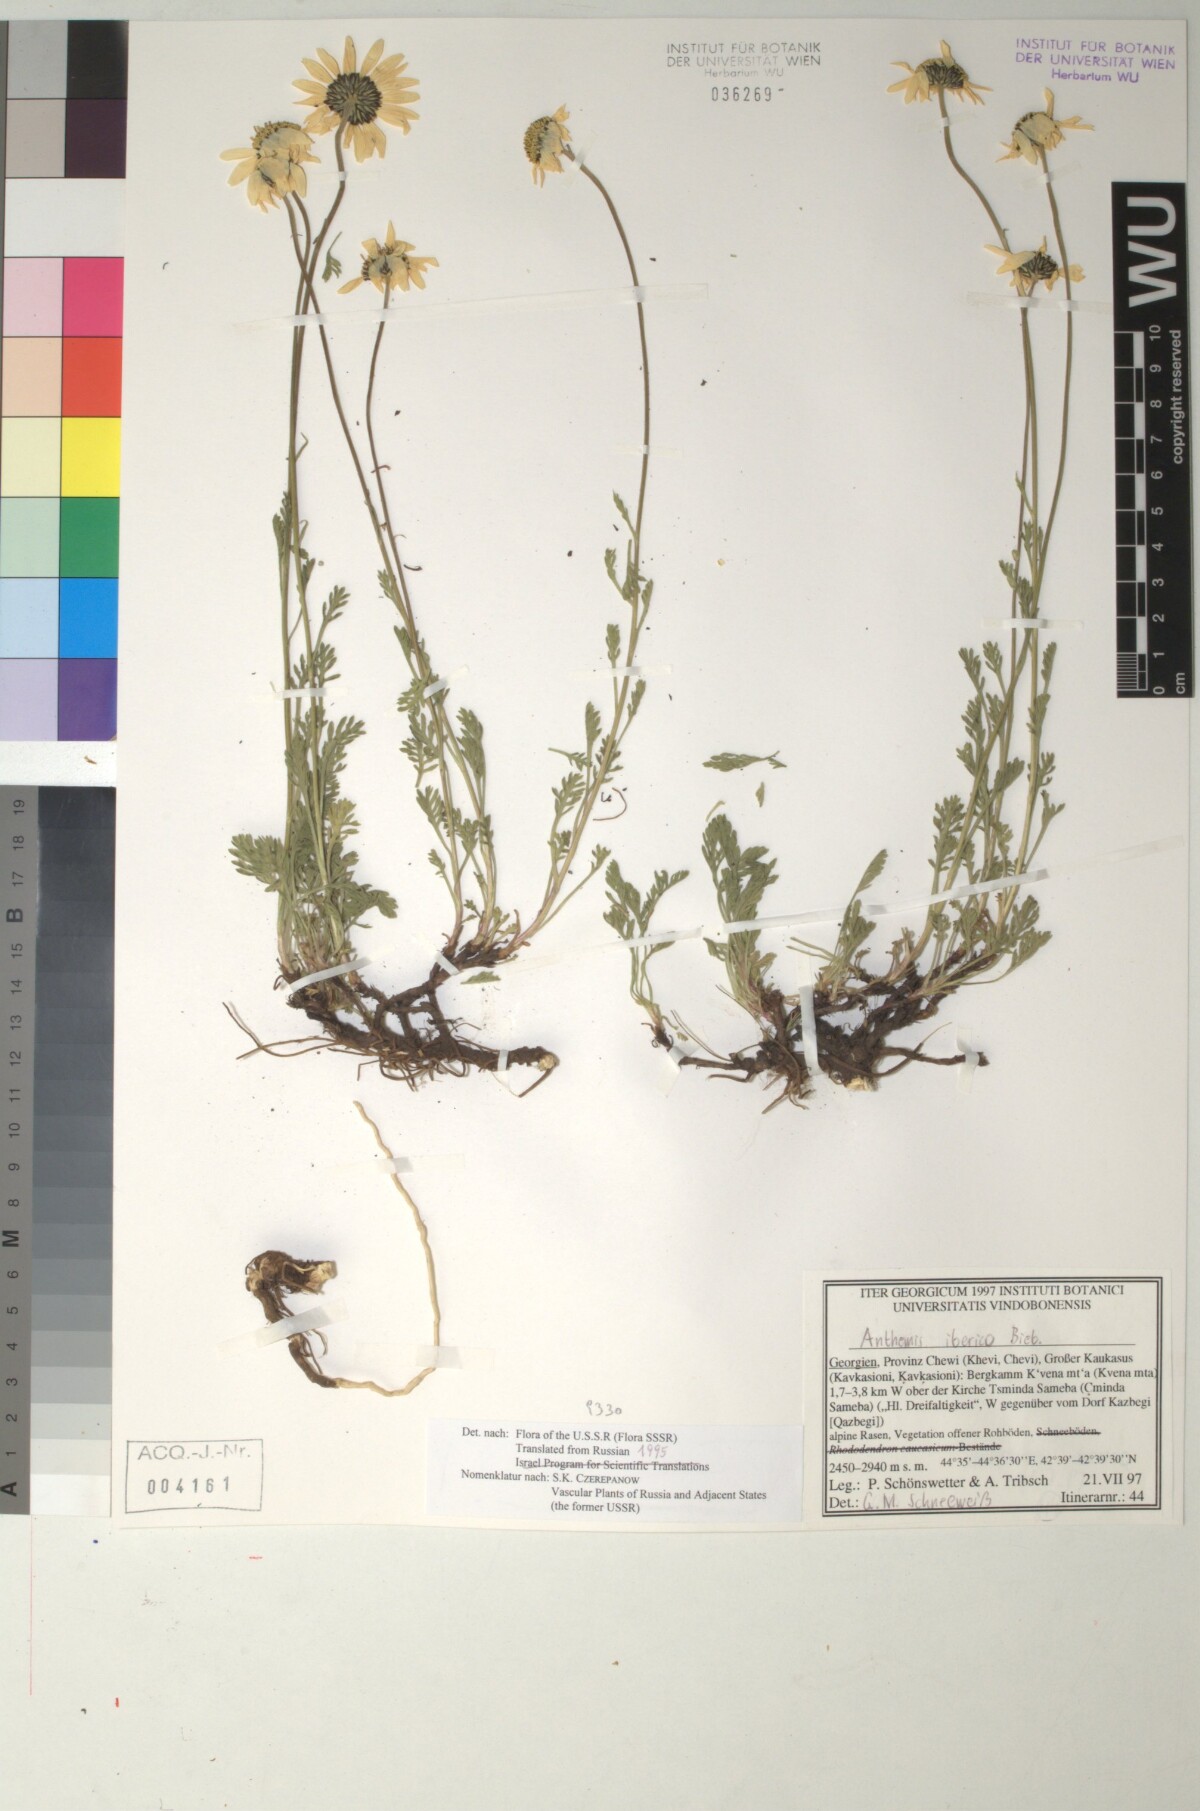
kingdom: Plantae
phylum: Tracheophyta
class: Magnoliopsida
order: Asterales
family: Asteraceae
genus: Anthemis
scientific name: Anthemis cretica
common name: Mountain dog-daisy
